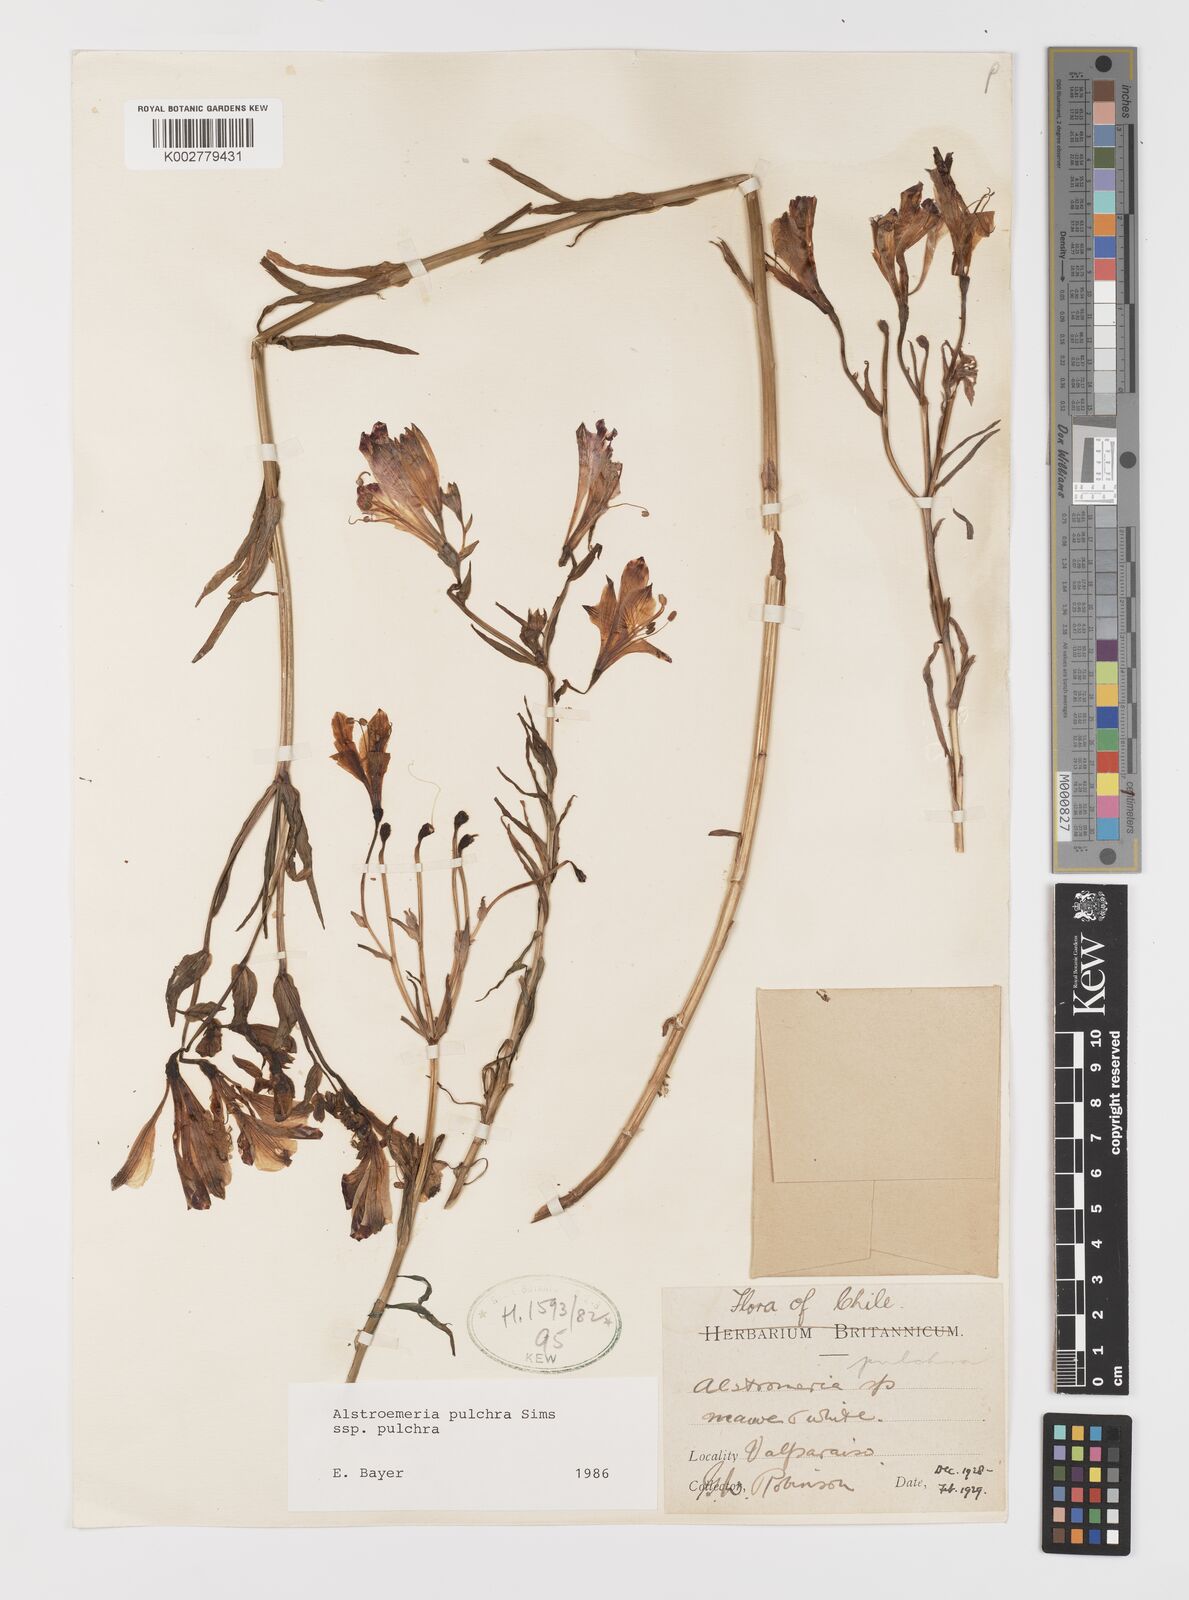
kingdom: Plantae
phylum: Tracheophyta
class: Liliopsida
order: Liliales
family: Alstroemeriaceae
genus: Alstroemeria
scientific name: Alstroemeria pulchra
